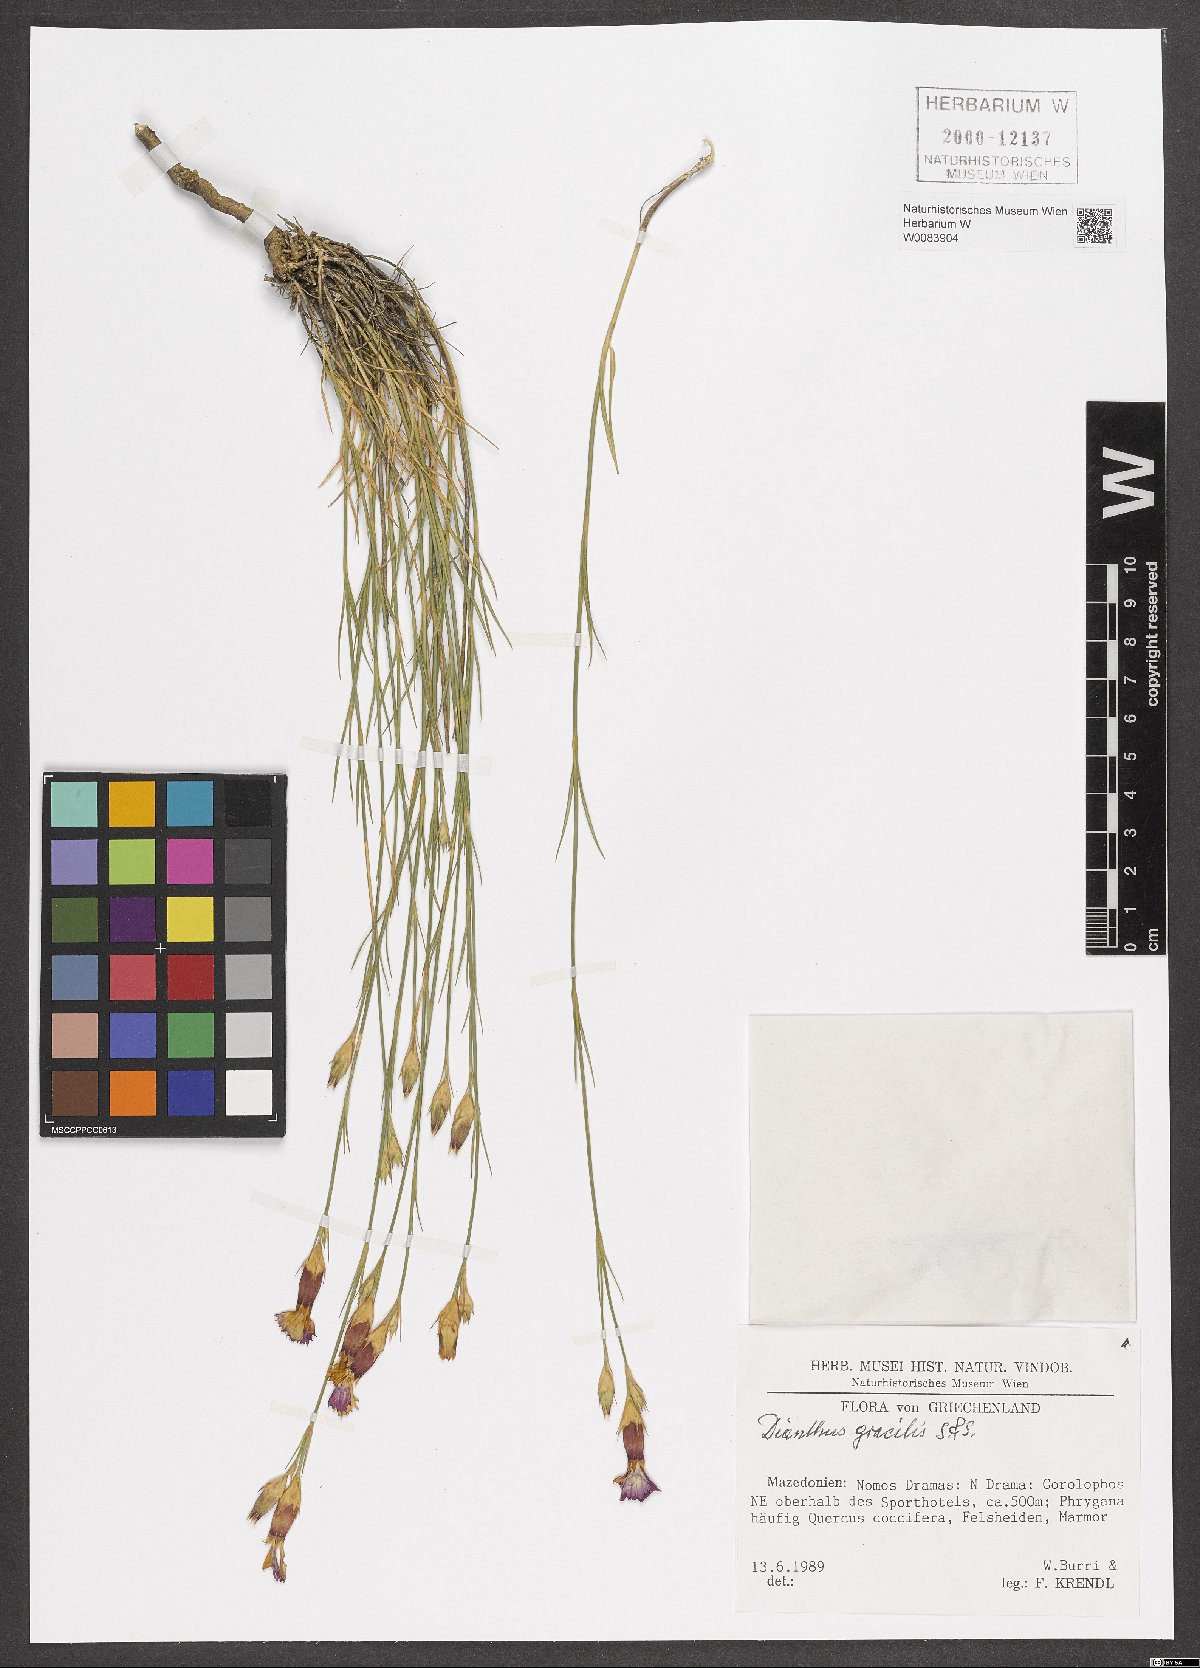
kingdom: Plantae
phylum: Tracheophyta
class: Magnoliopsida
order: Caryophyllales
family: Caryophyllaceae
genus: Dianthus
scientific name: Dianthus gracilis
